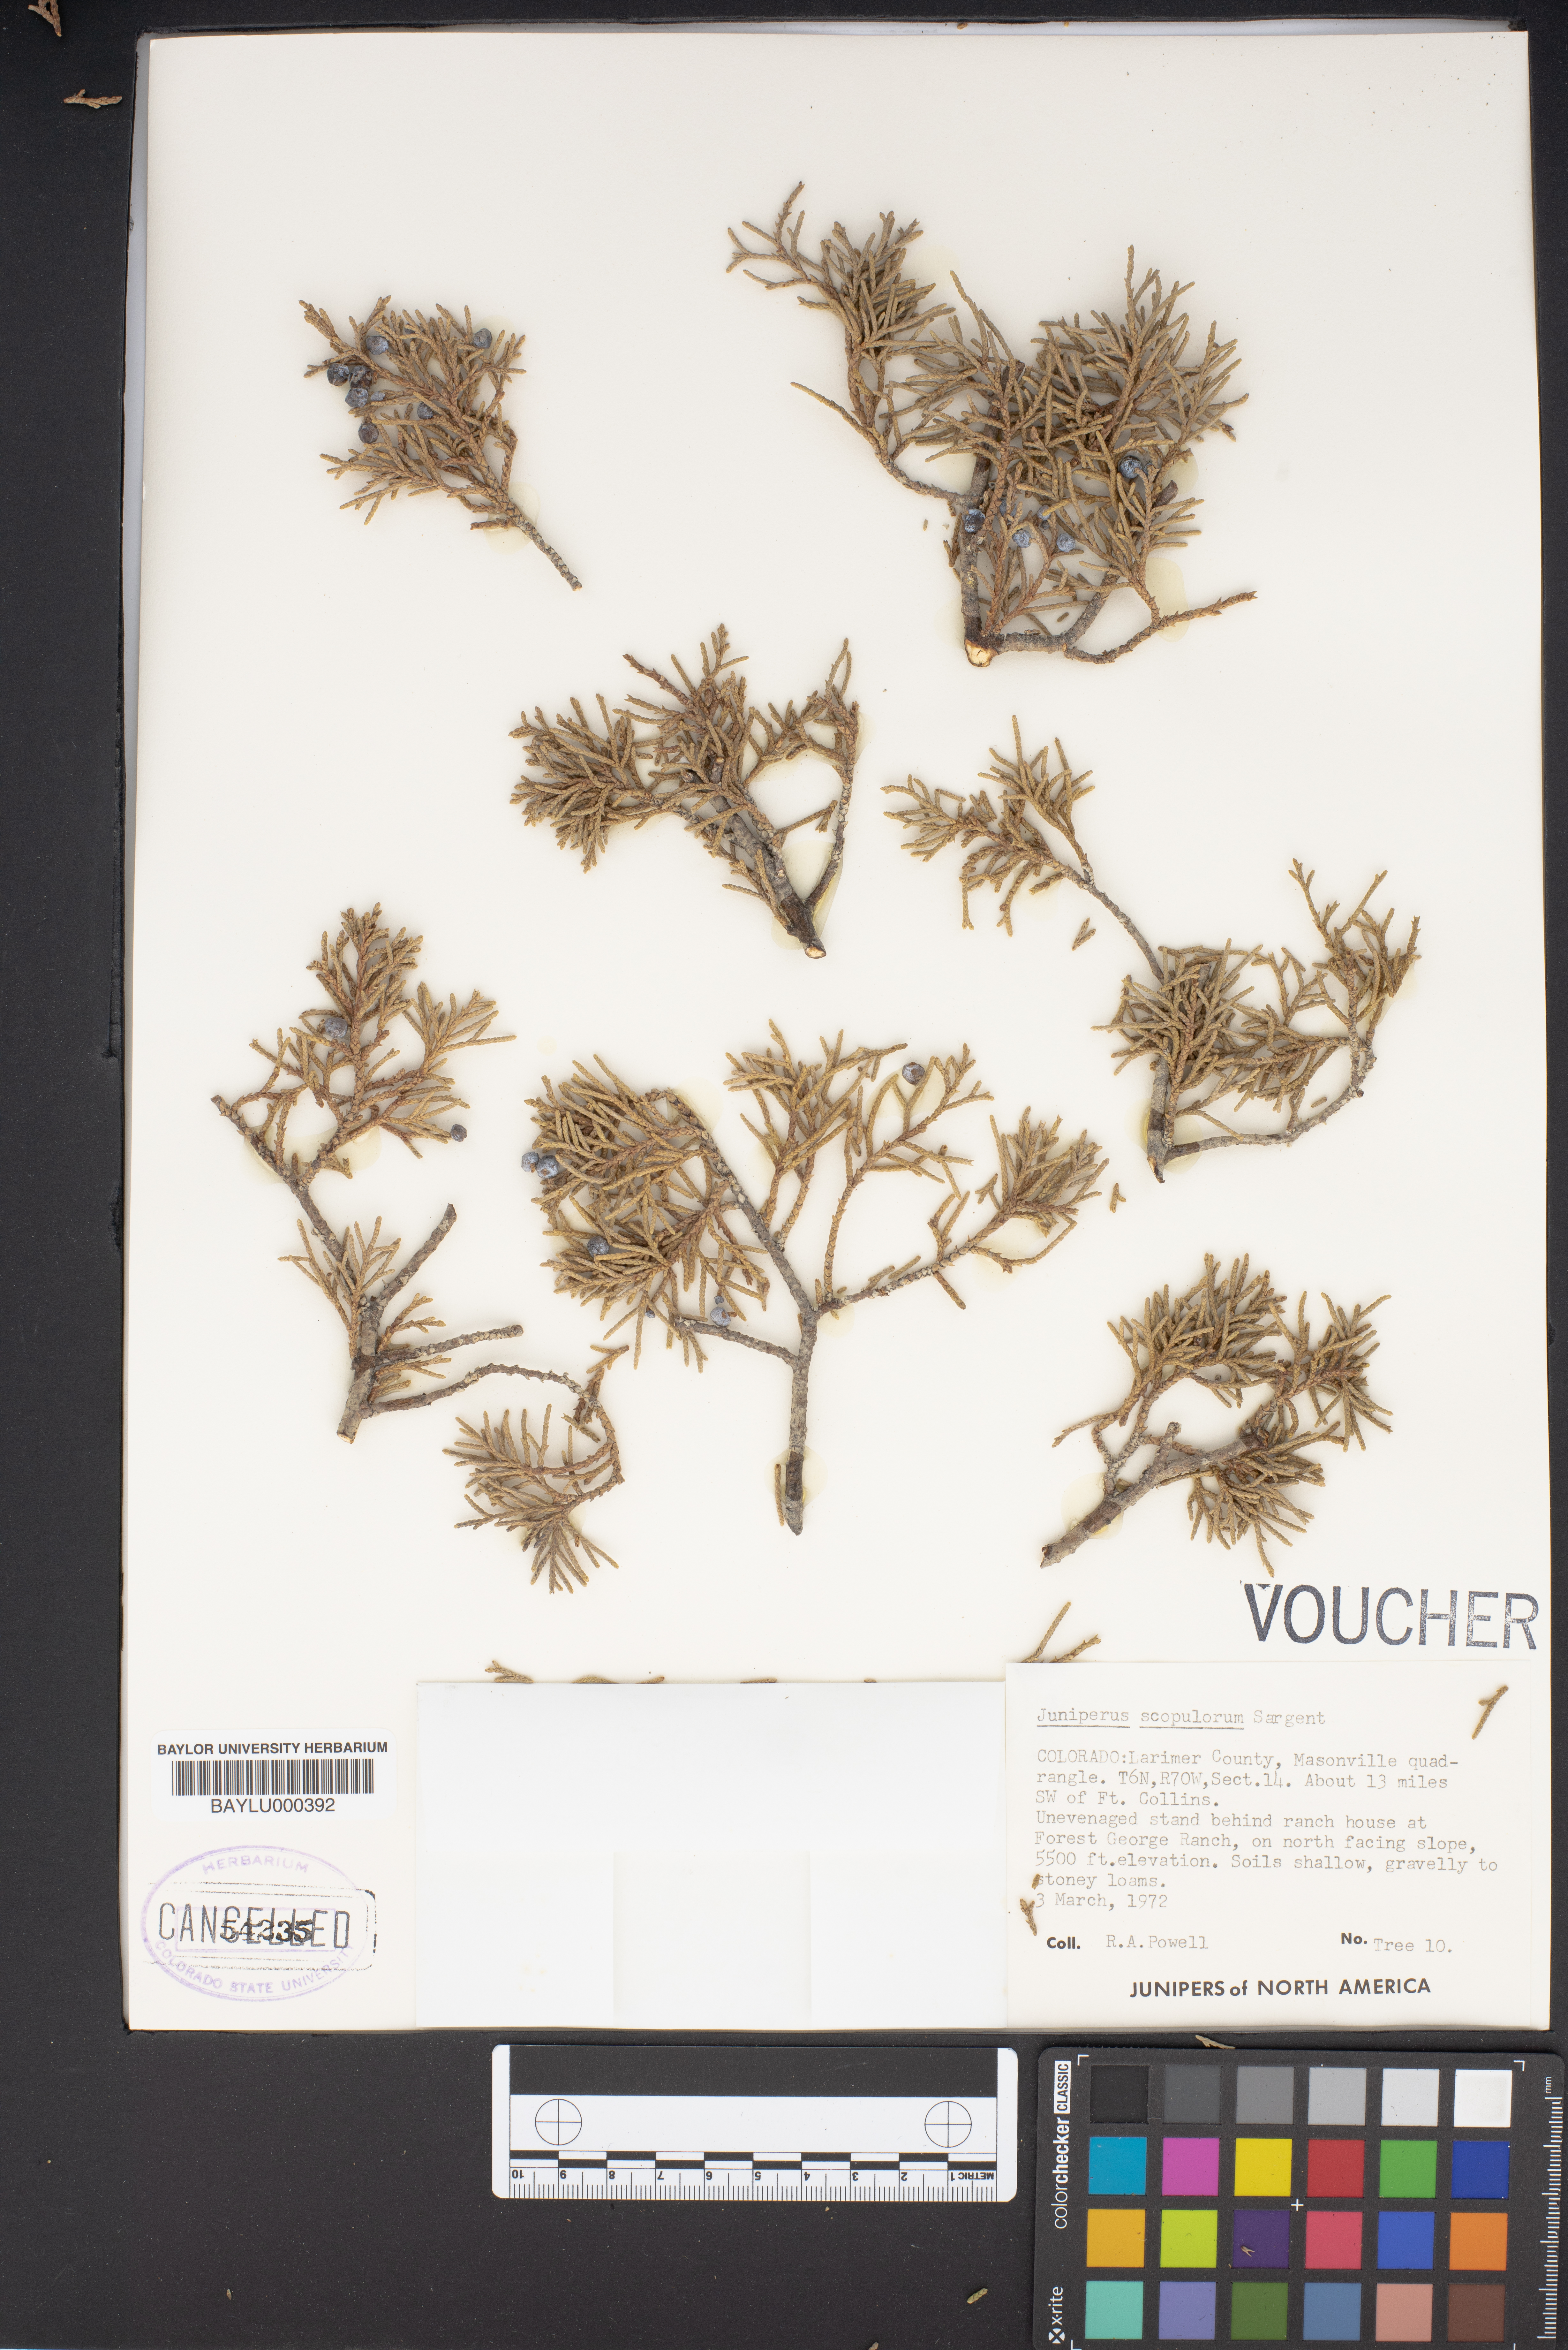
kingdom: Plantae
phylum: Tracheophyta
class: Pinopsida
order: Pinales
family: Cupressaceae
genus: Juniperus
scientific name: Juniperus scopulorum
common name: Rocky mountain juniper
